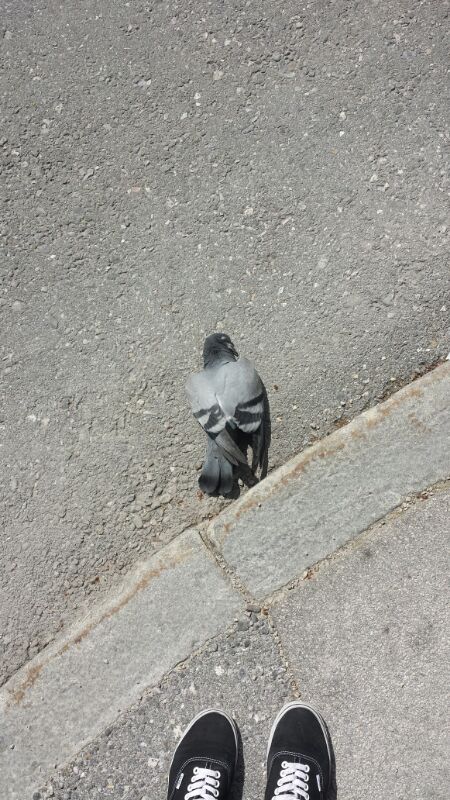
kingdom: Animalia
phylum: Chordata
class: Aves
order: Columbiformes
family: Columbidae
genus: Columba
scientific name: Columba livia
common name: Rock pigeon
